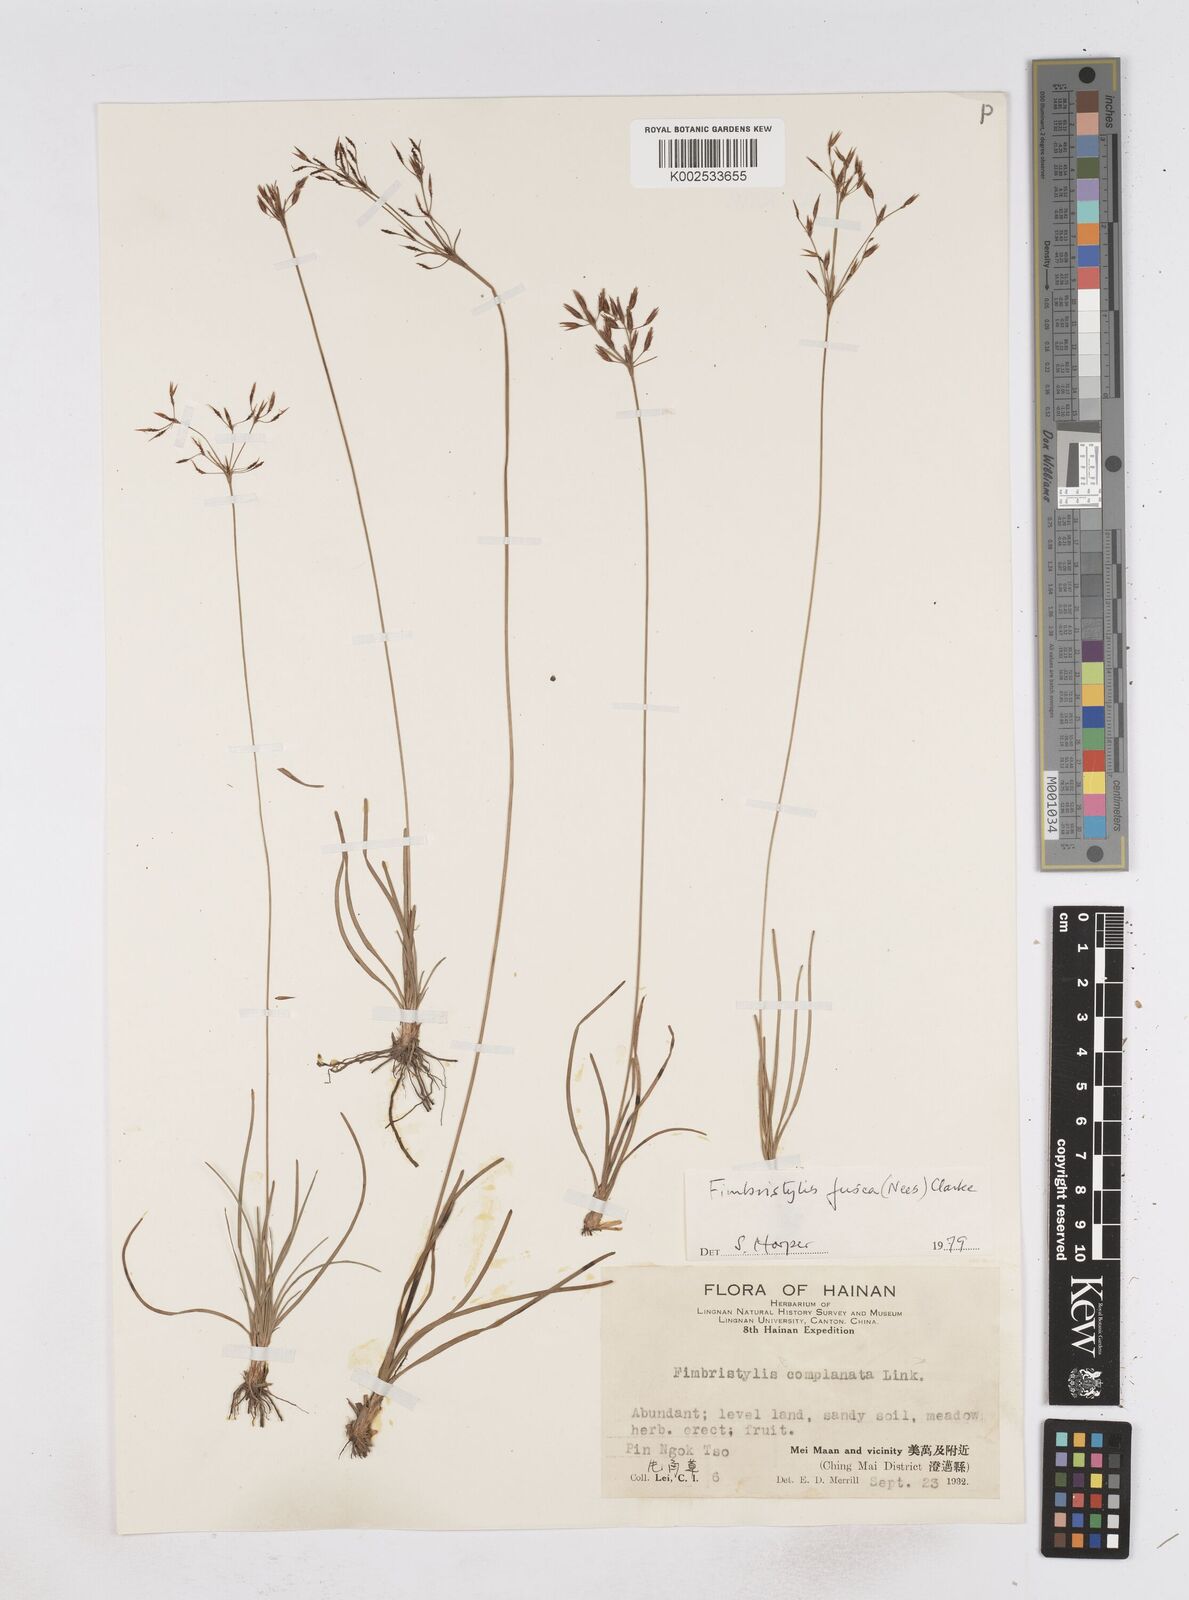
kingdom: Plantae
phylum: Tracheophyta
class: Liliopsida
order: Poales
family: Cyperaceae
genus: Fimbristylis
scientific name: Fimbristylis fusca
